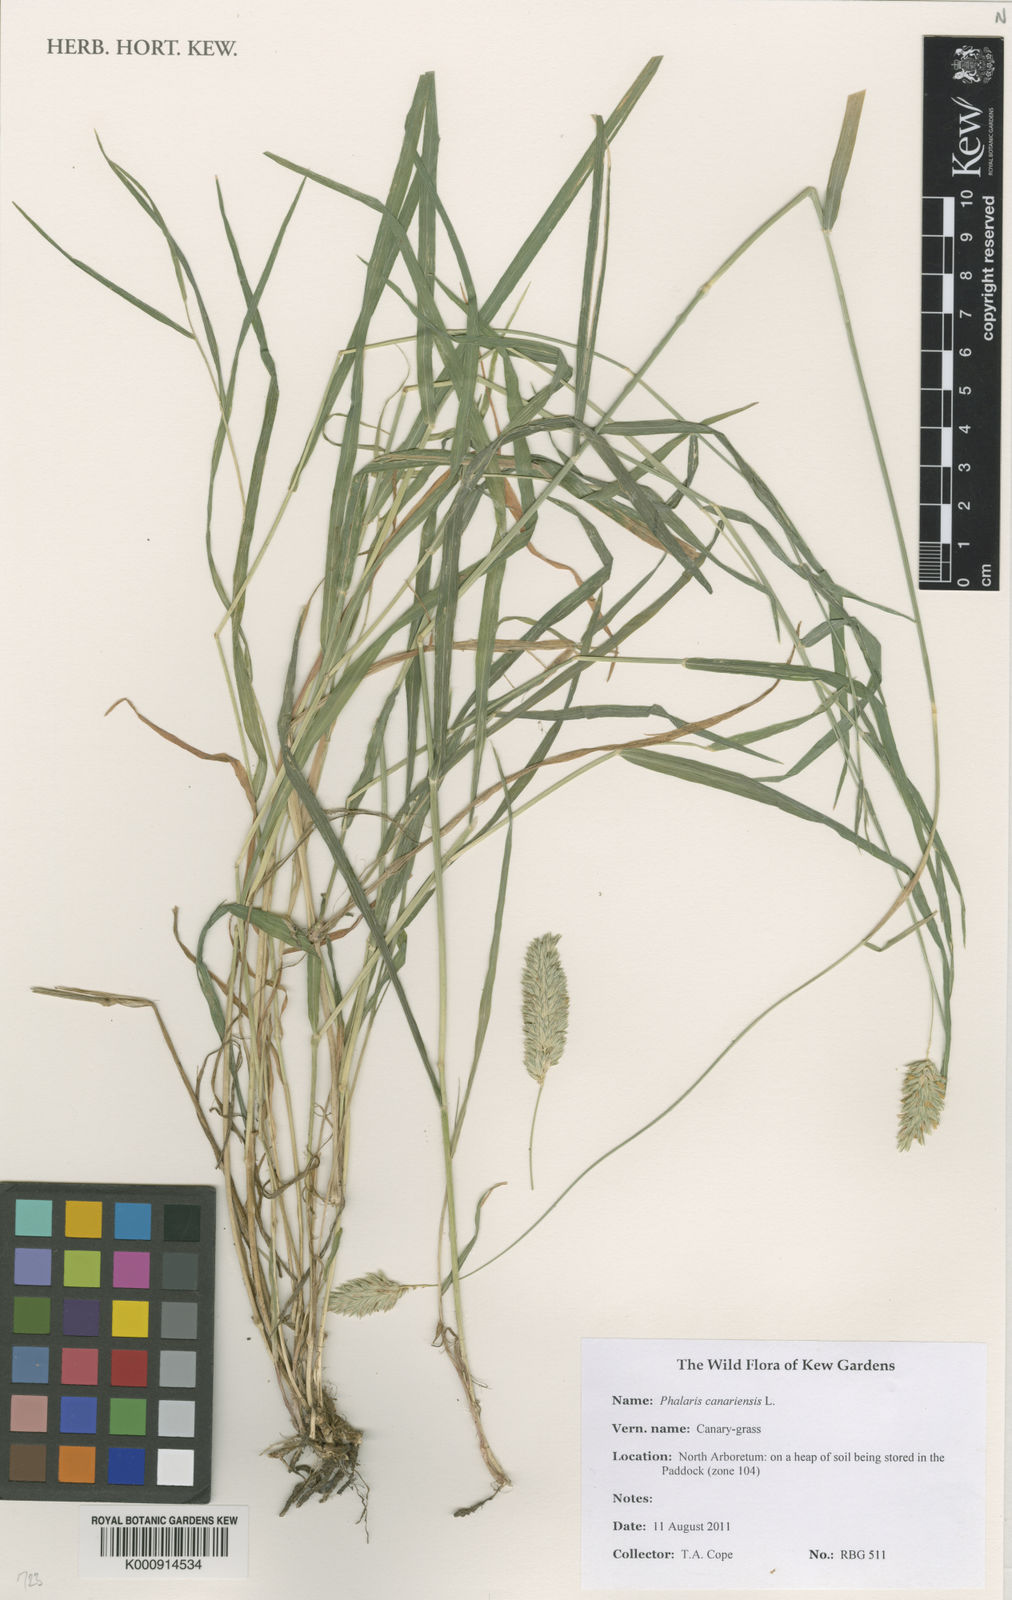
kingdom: Plantae
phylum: Tracheophyta
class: Liliopsida
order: Poales
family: Poaceae
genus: Phalaris
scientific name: Phalaris canariensis
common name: Annual canarygrass
